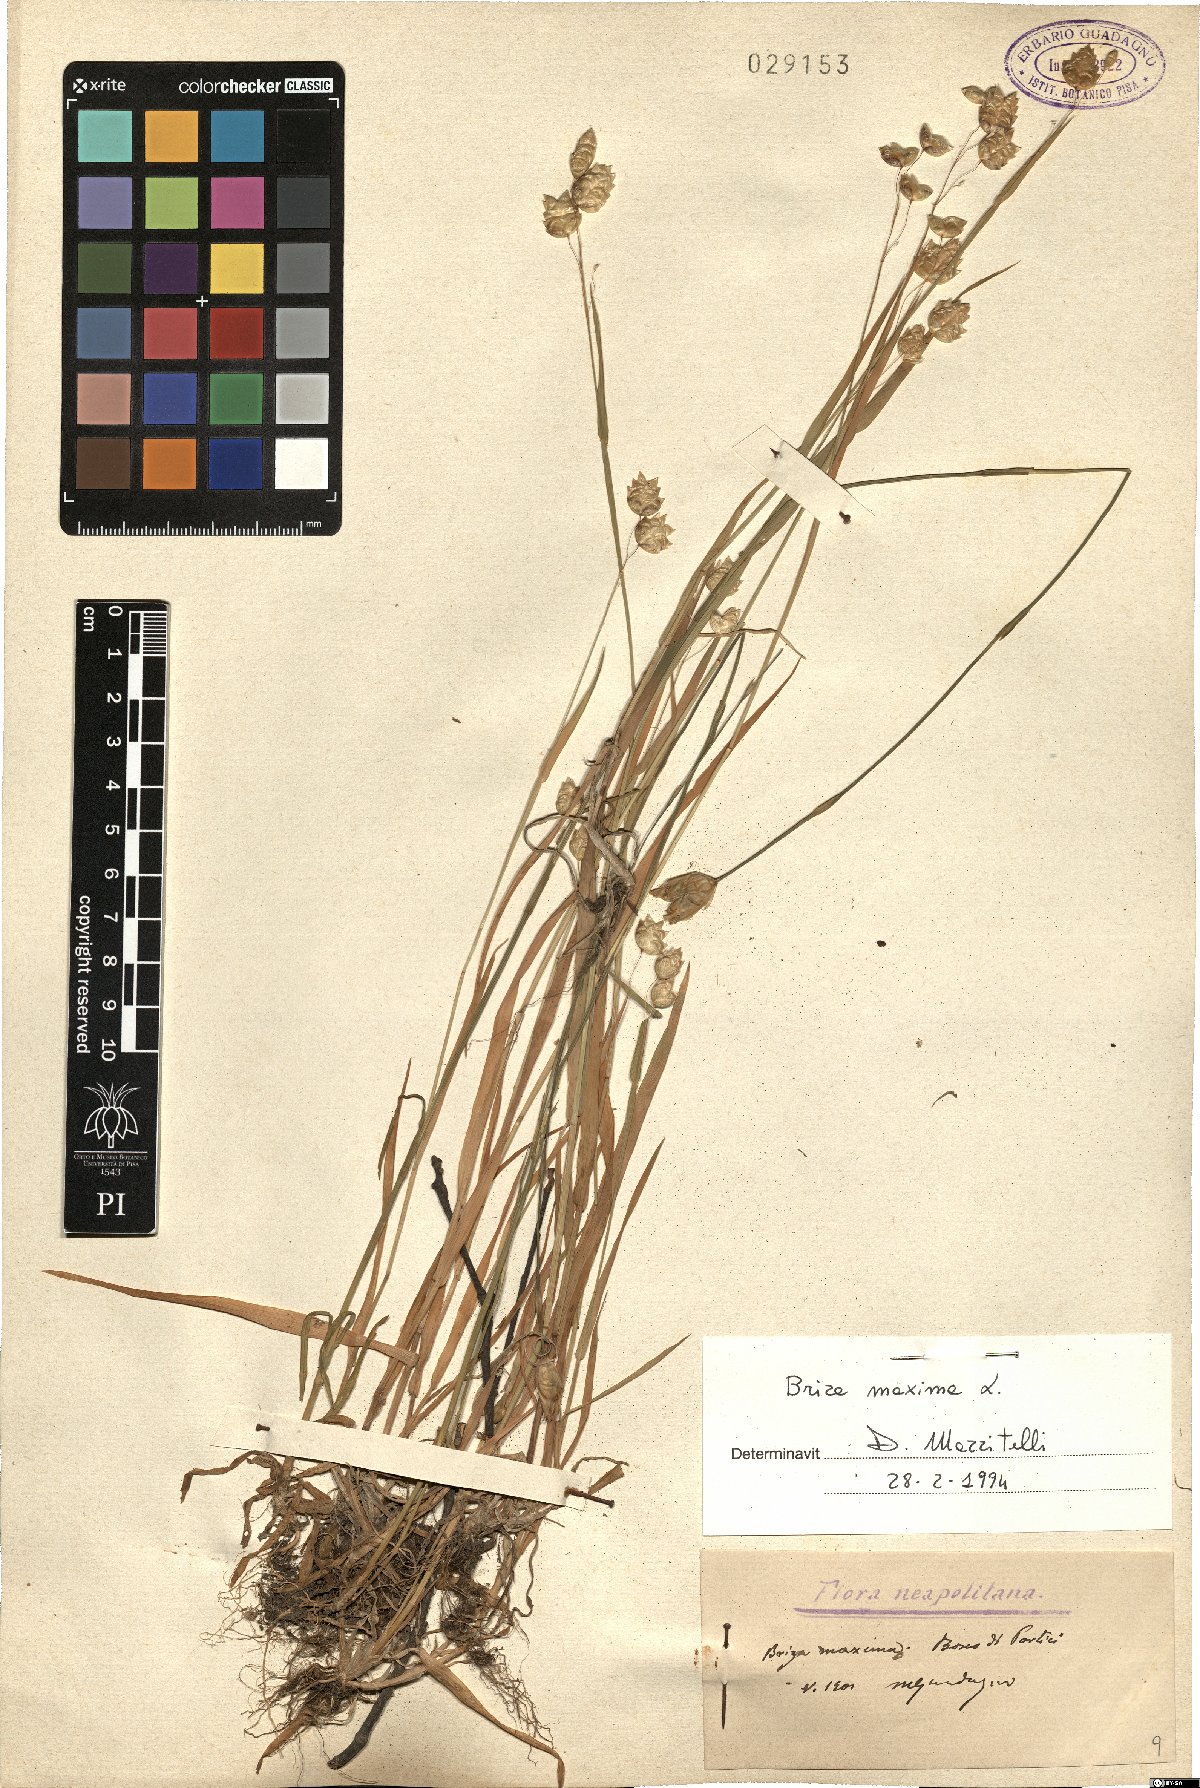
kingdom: Plantae
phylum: Tracheophyta
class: Liliopsida
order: Poales
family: Poaceae
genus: Briza
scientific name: Briza maxima
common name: Big quakinggrass
